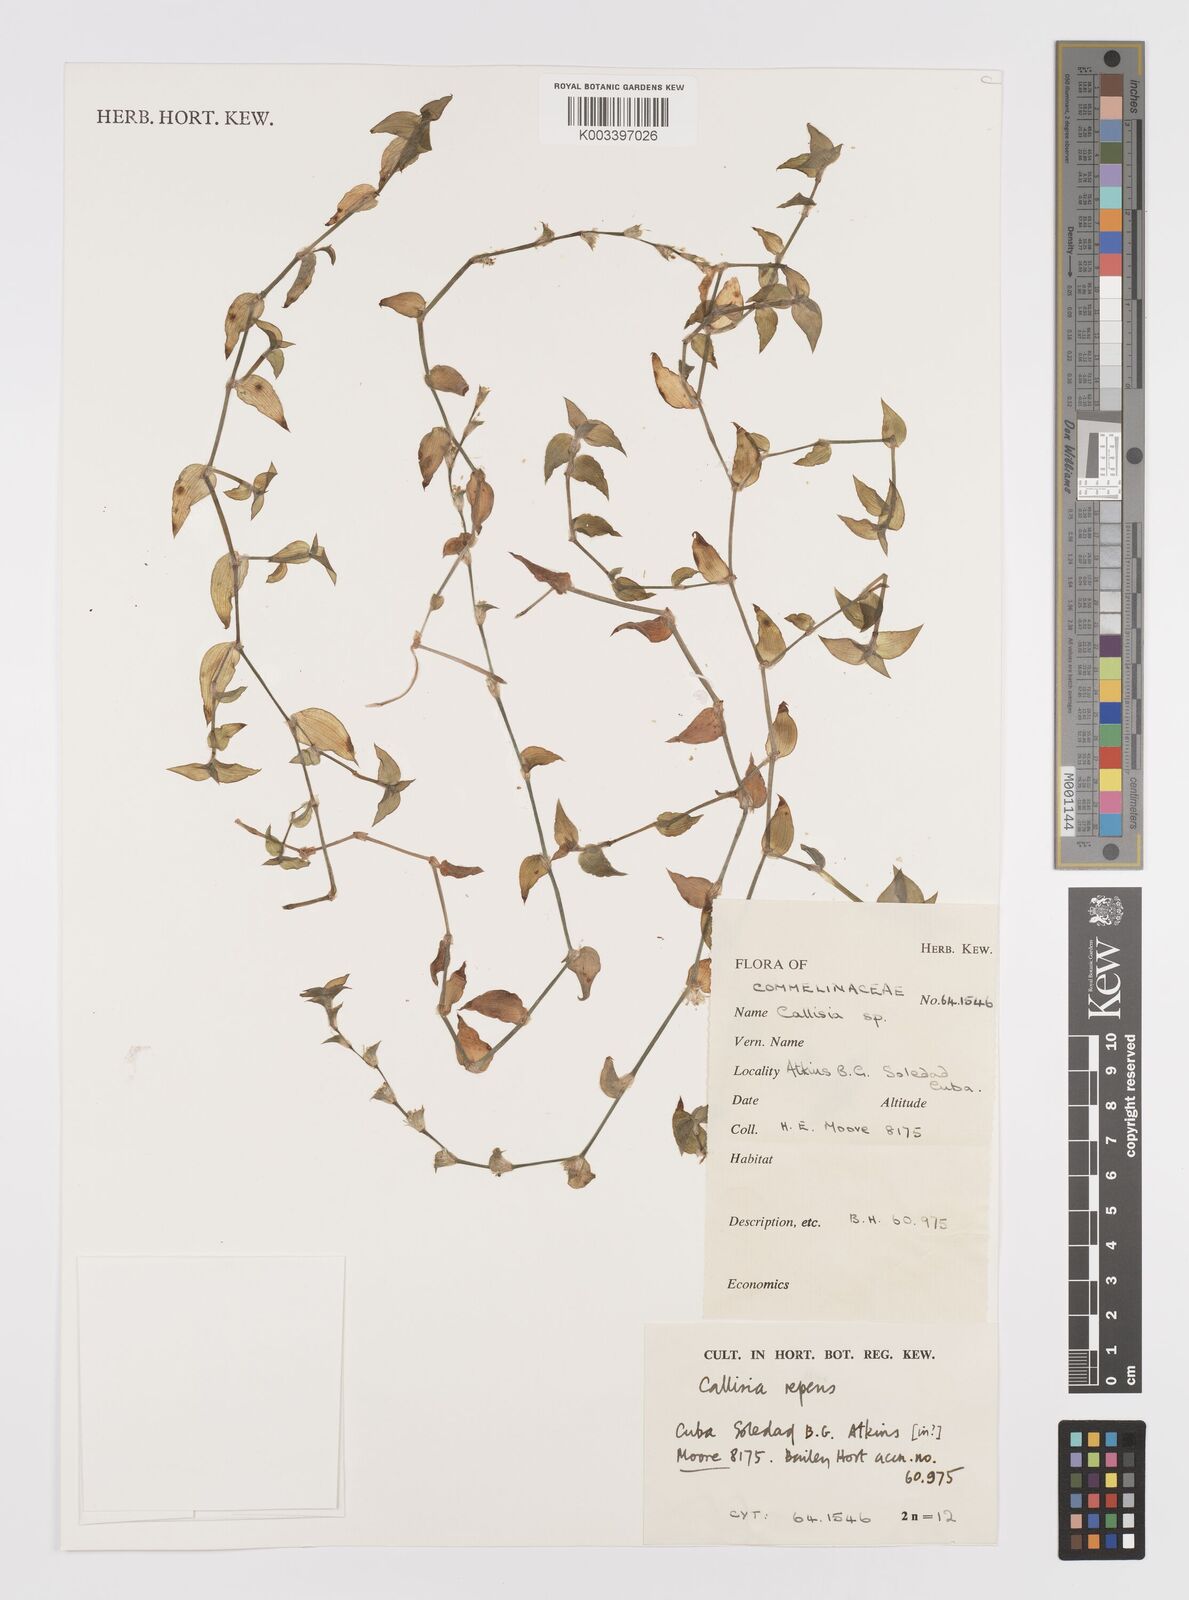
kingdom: Plantae
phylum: Tracheophyta
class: Liliopsida
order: Commelinales
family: Commelinaceae
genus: Callisia
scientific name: Callisia repens
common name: Creeping inchplant
